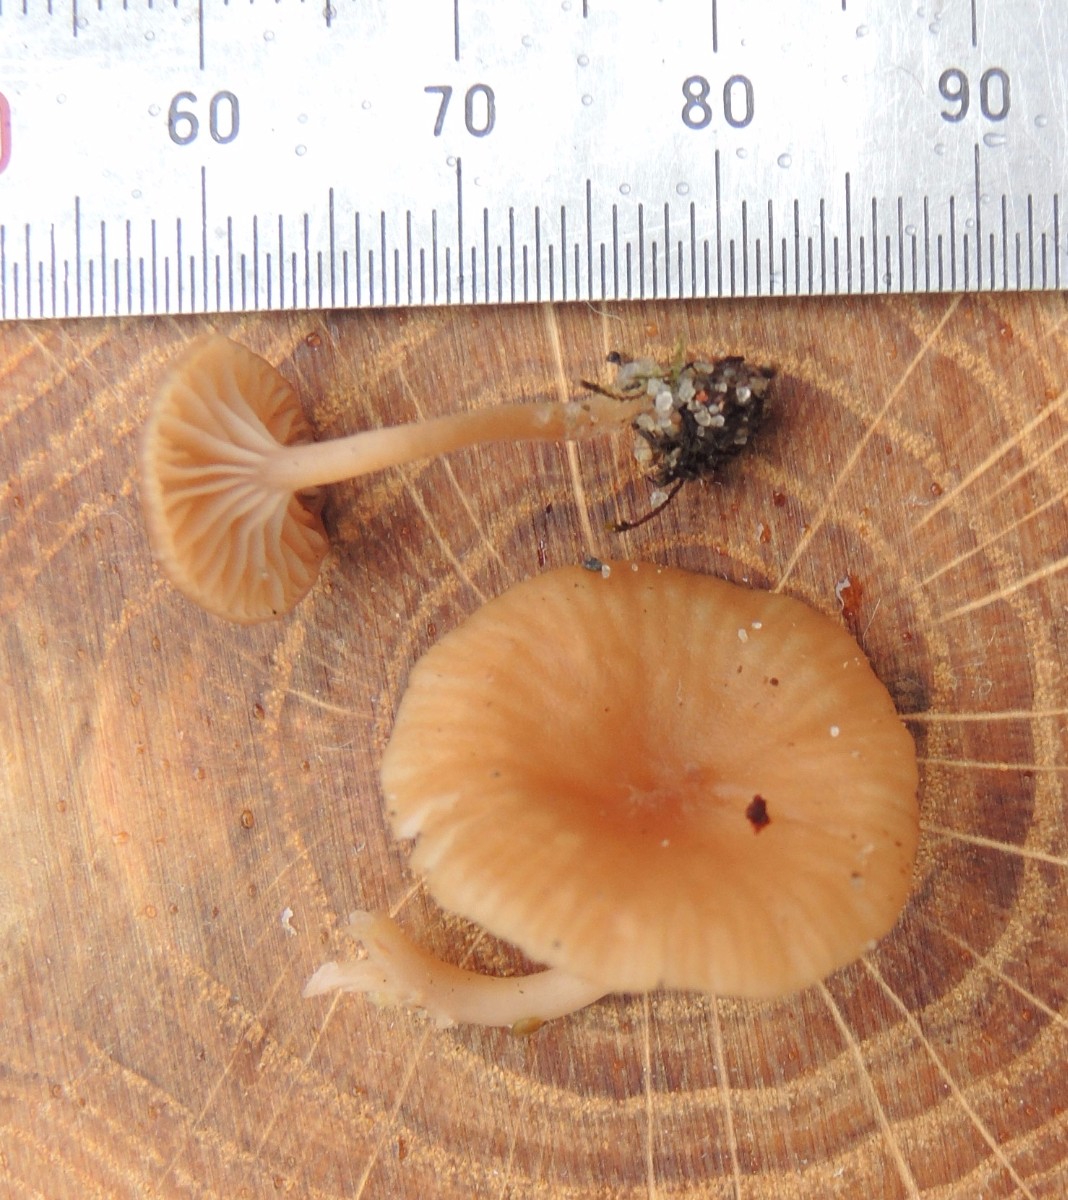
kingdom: Fungi
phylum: Basidiomycota
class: Agaricomycetes
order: Agaricales
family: Tricholomataceae
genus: Omphalina
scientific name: Omphalina pyxidata
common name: rødbrun navlehat
